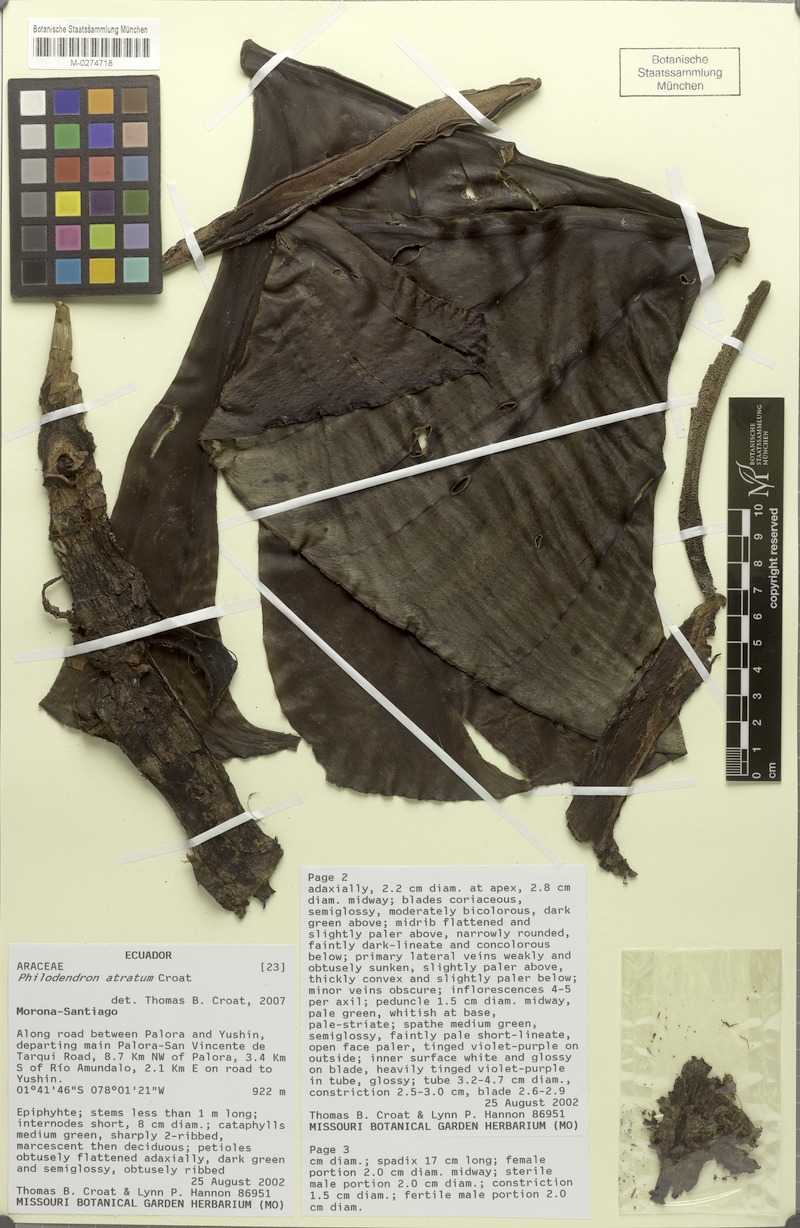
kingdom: Plantae
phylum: Tracheophyta
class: Liliopsida
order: Alismatales
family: Araceae
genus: Philodendron
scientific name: Philodendron atratum
